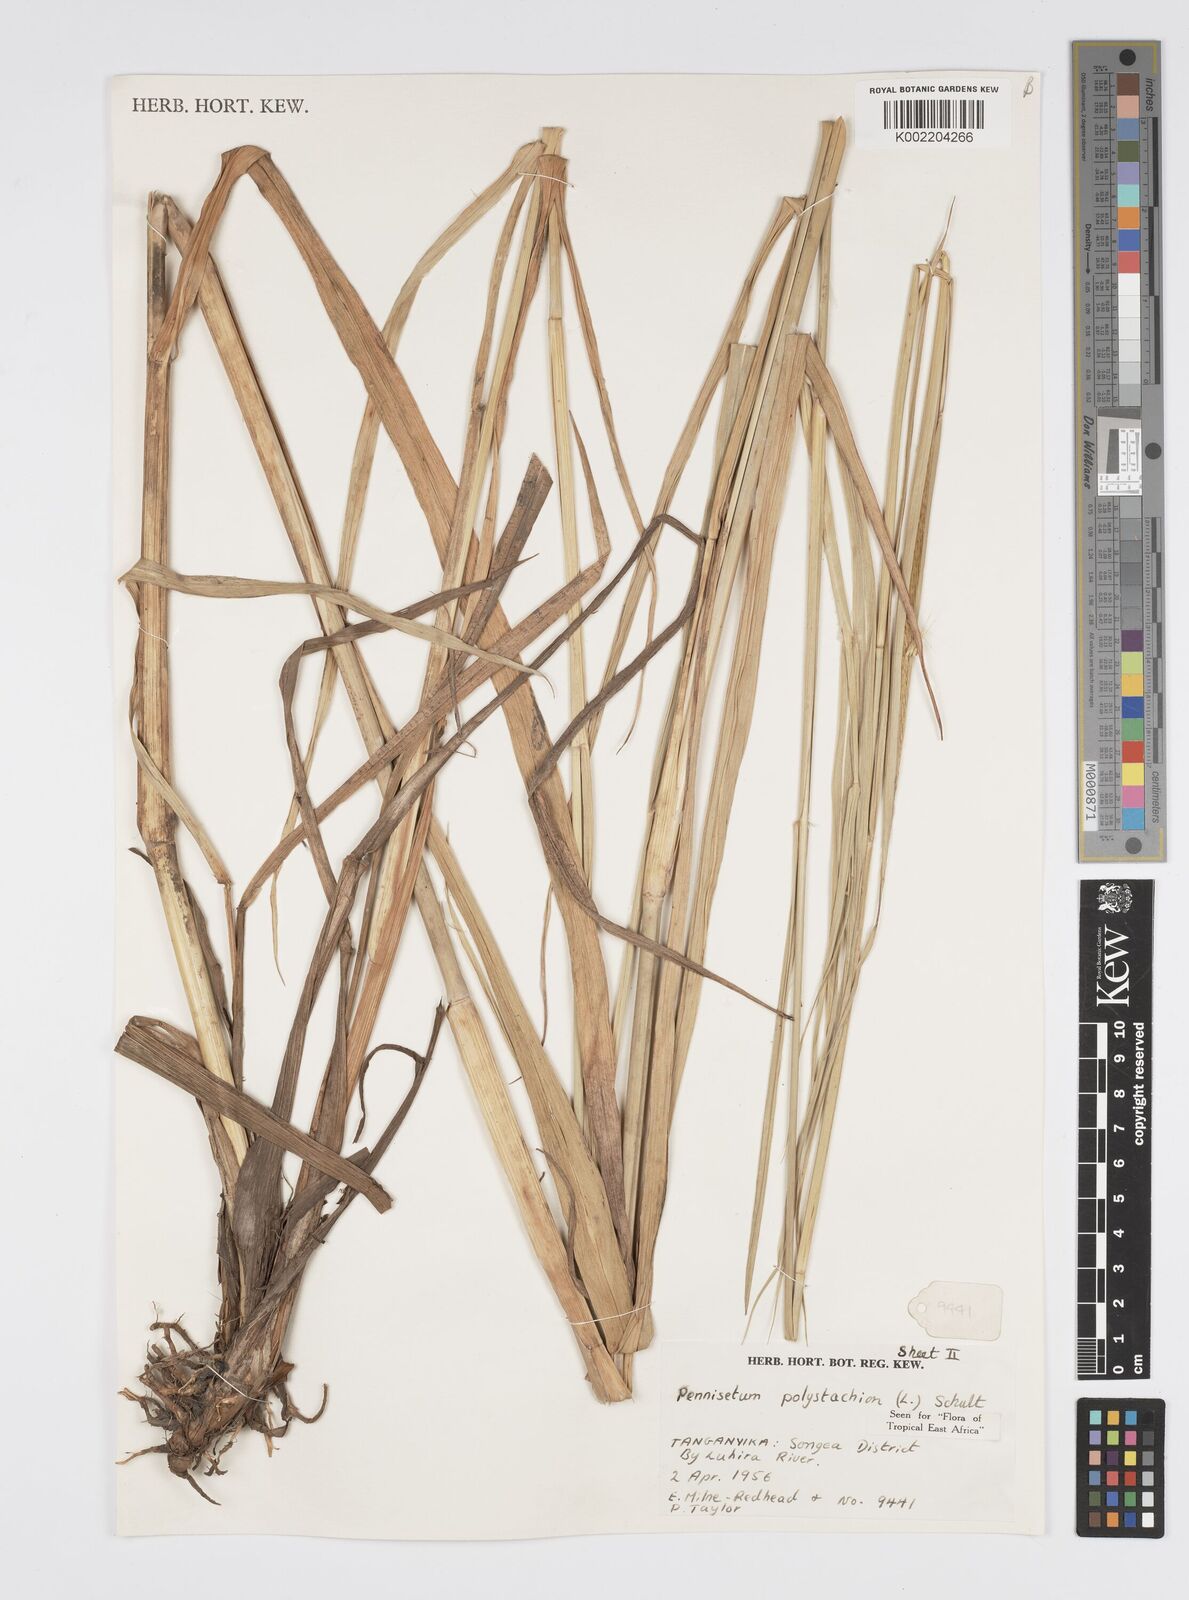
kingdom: Plantae
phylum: Tracheophyta
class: Liliopsida
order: Poales
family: Poaceae
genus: Setaria
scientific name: Setaria parviflora
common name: Knotroot bristle-grass
